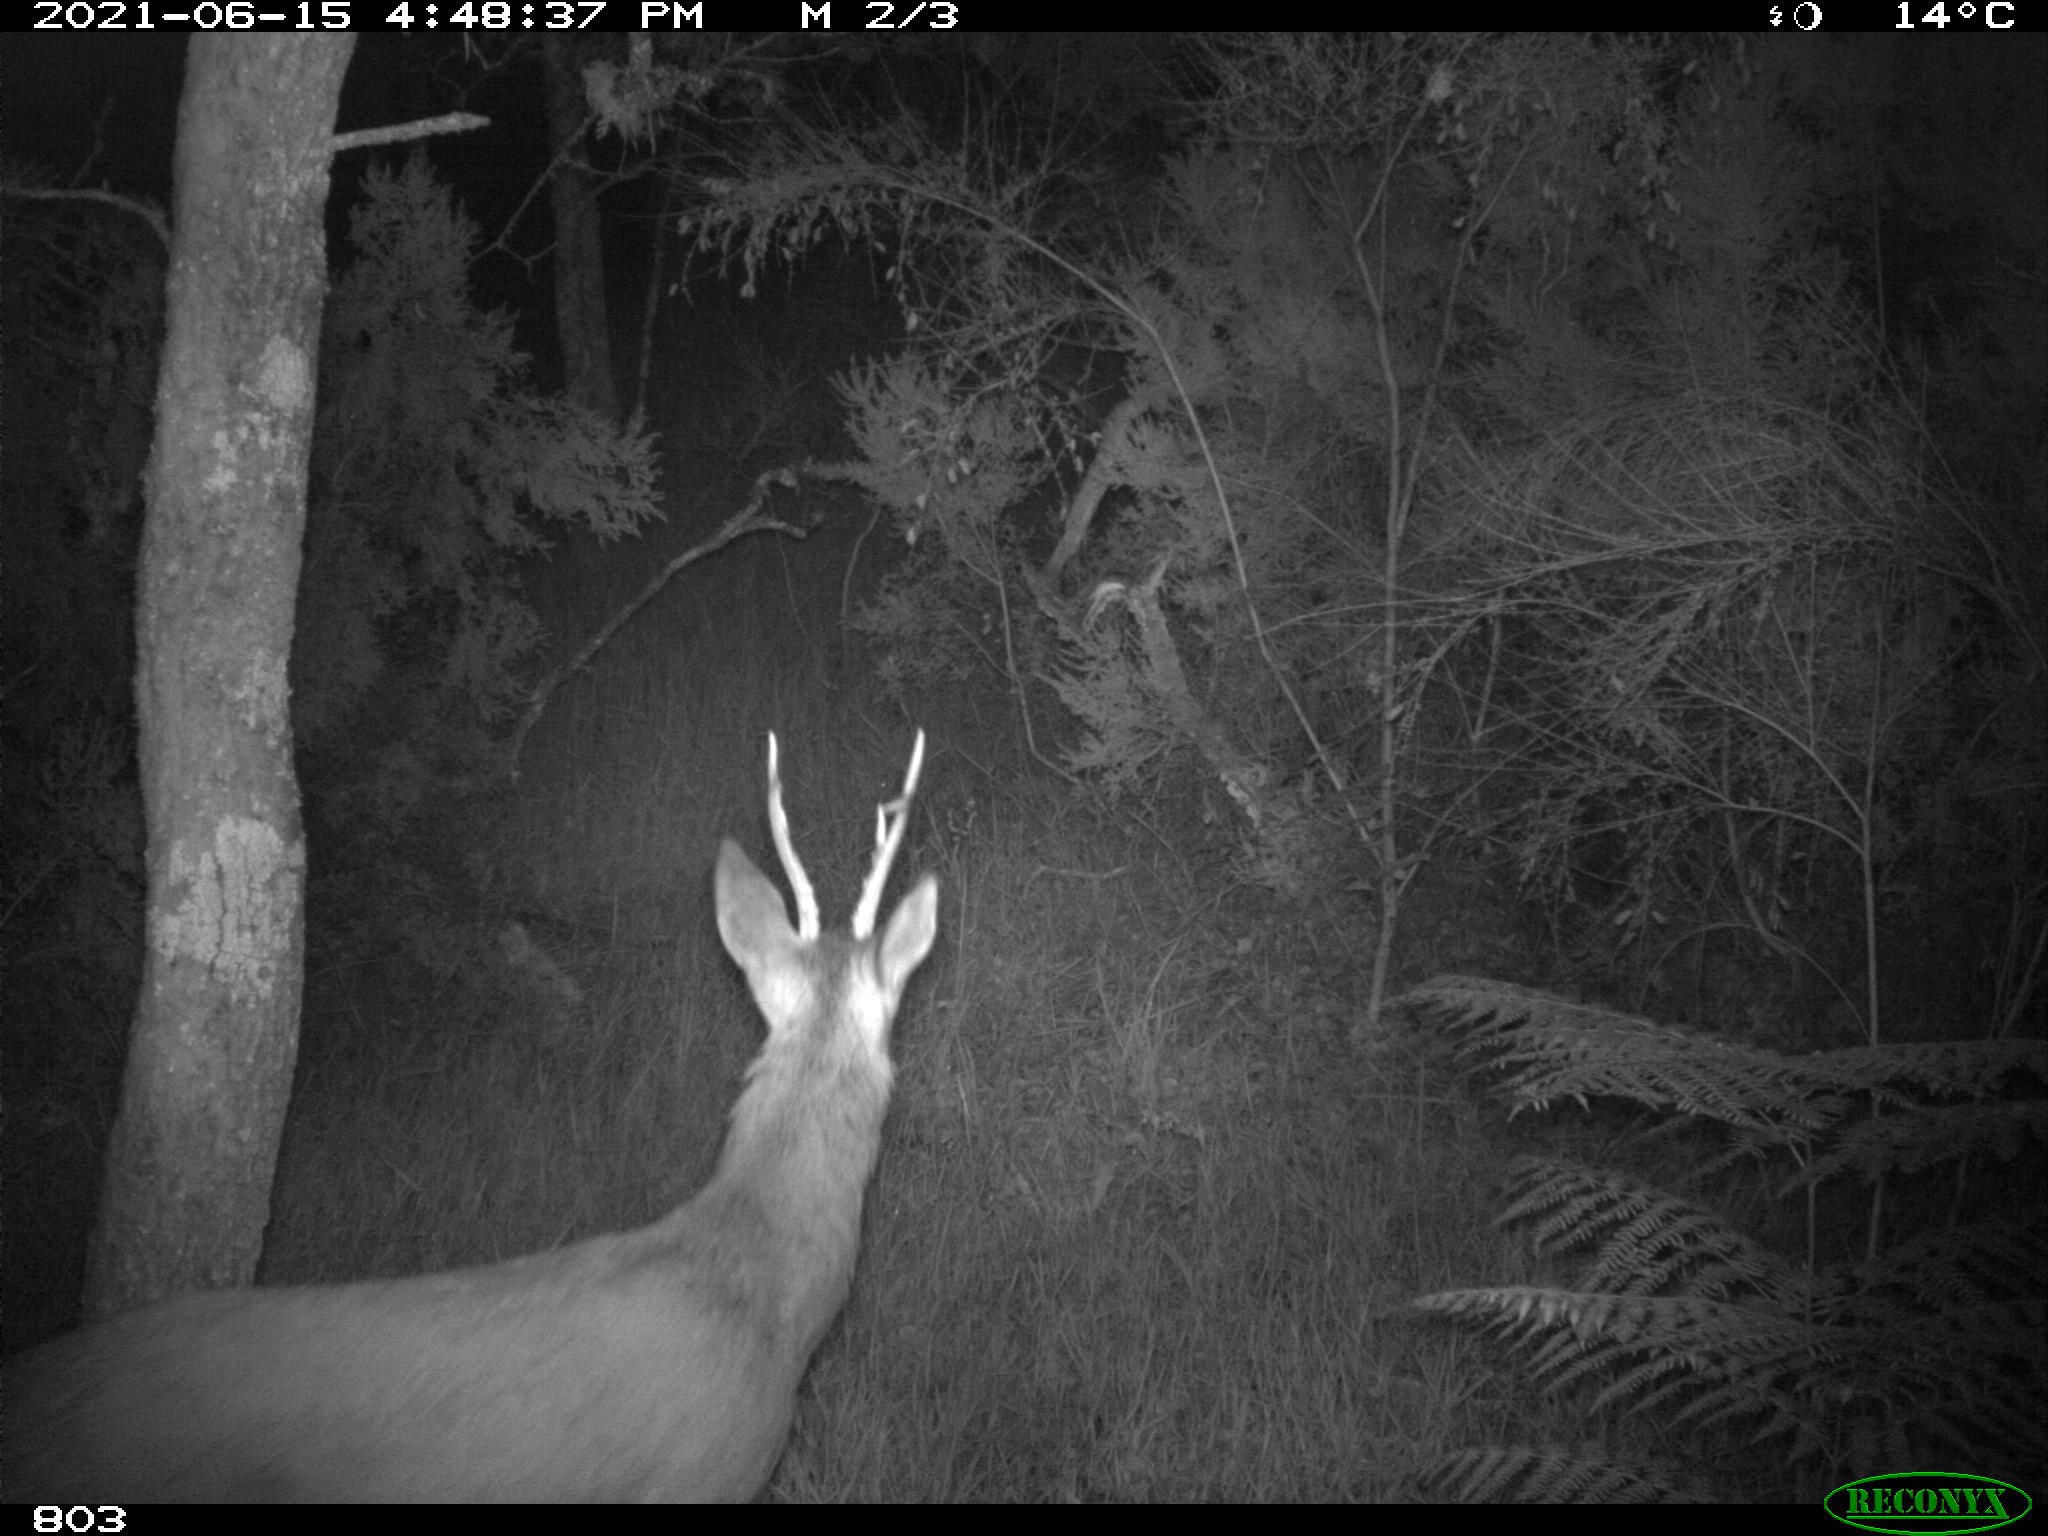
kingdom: Animalia
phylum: Chordata
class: Mammalia
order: Artiodactyla
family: Cervidae
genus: Capreolus
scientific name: Capreolus capreolus
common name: Western roe deer
